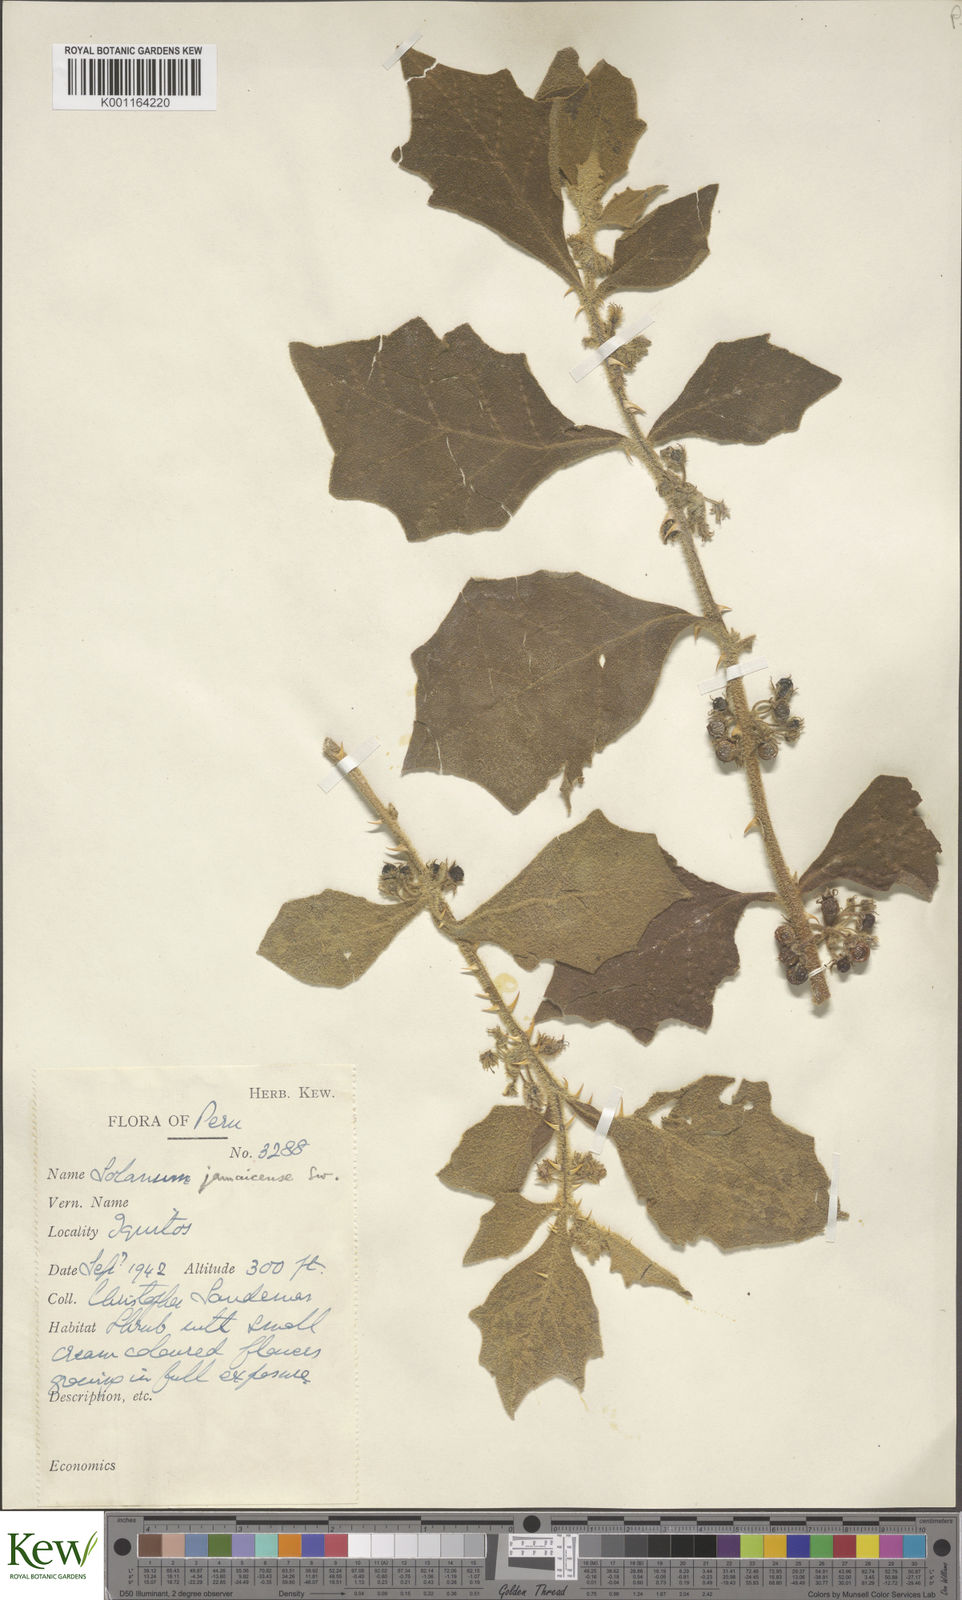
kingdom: Plantae
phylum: Tracheophyta
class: Magnoliopsida
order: Solanales
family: Solanaceae
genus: Solanum
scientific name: Solanum jamaicense
